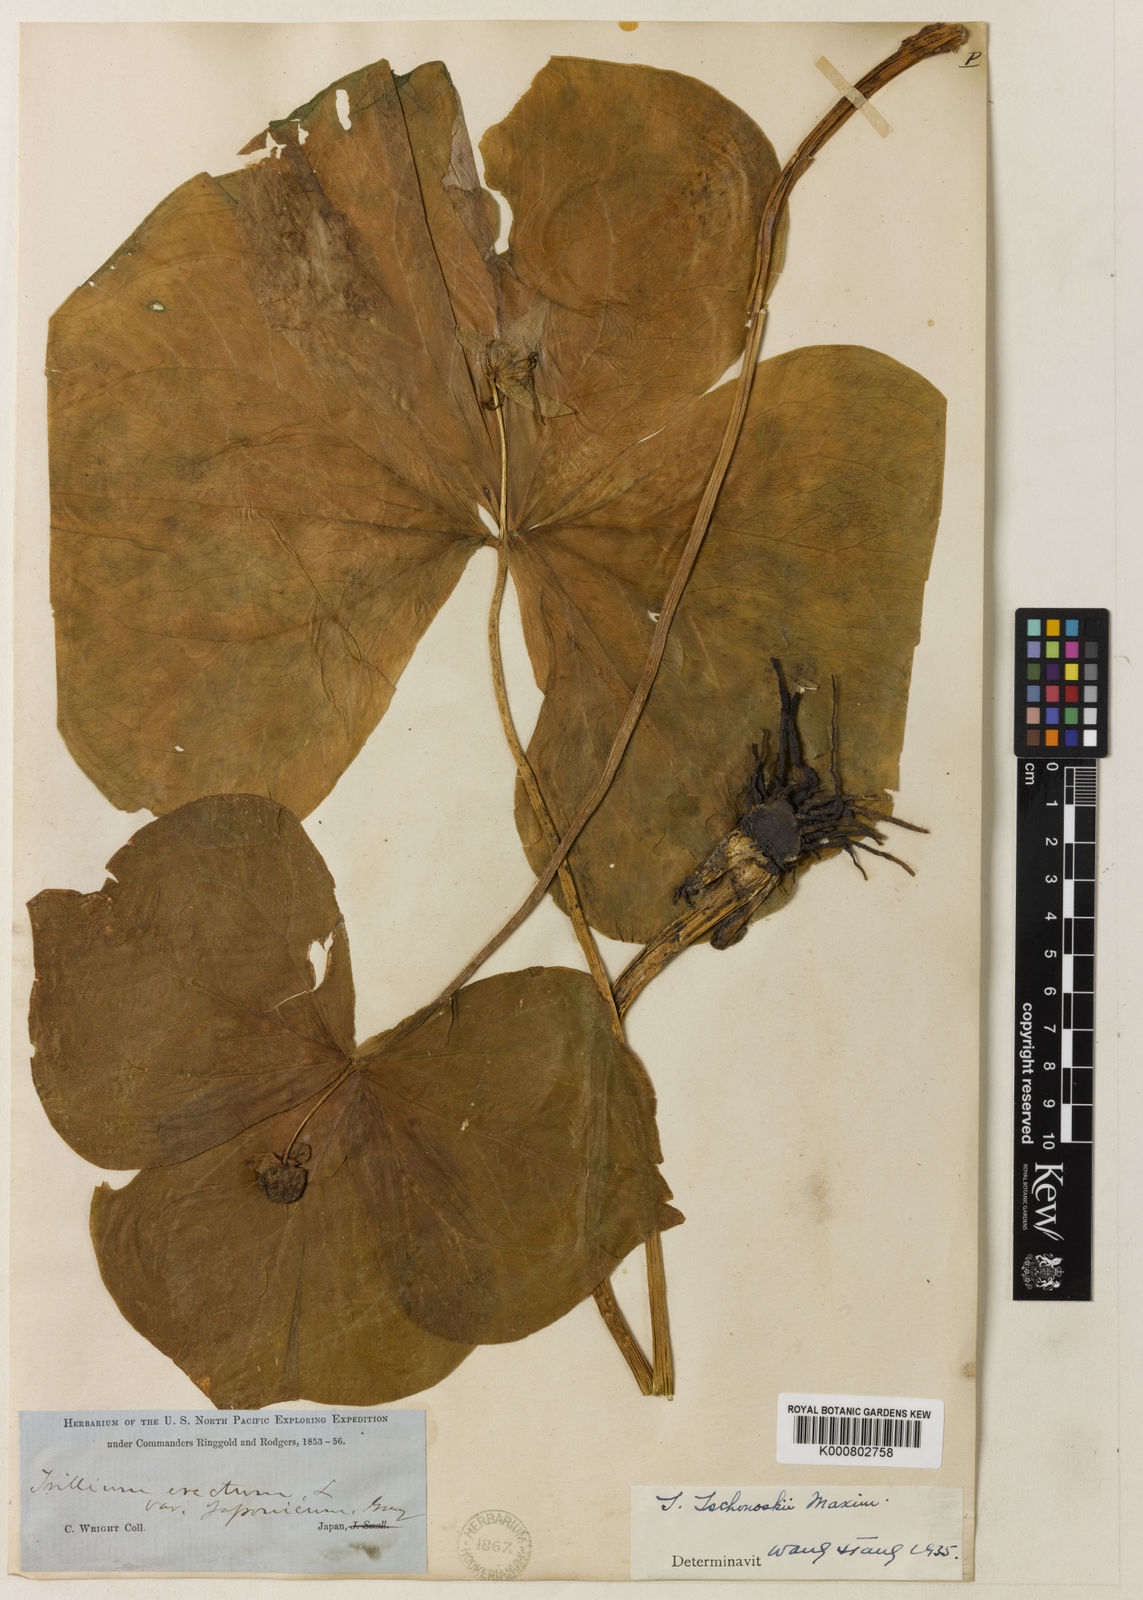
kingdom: Plantae
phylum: Tracheophyta
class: Liliopsida
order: Liliales
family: Melanthiaceae
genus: Trillium
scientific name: Trillium tschonoskii
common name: A pearl on head
